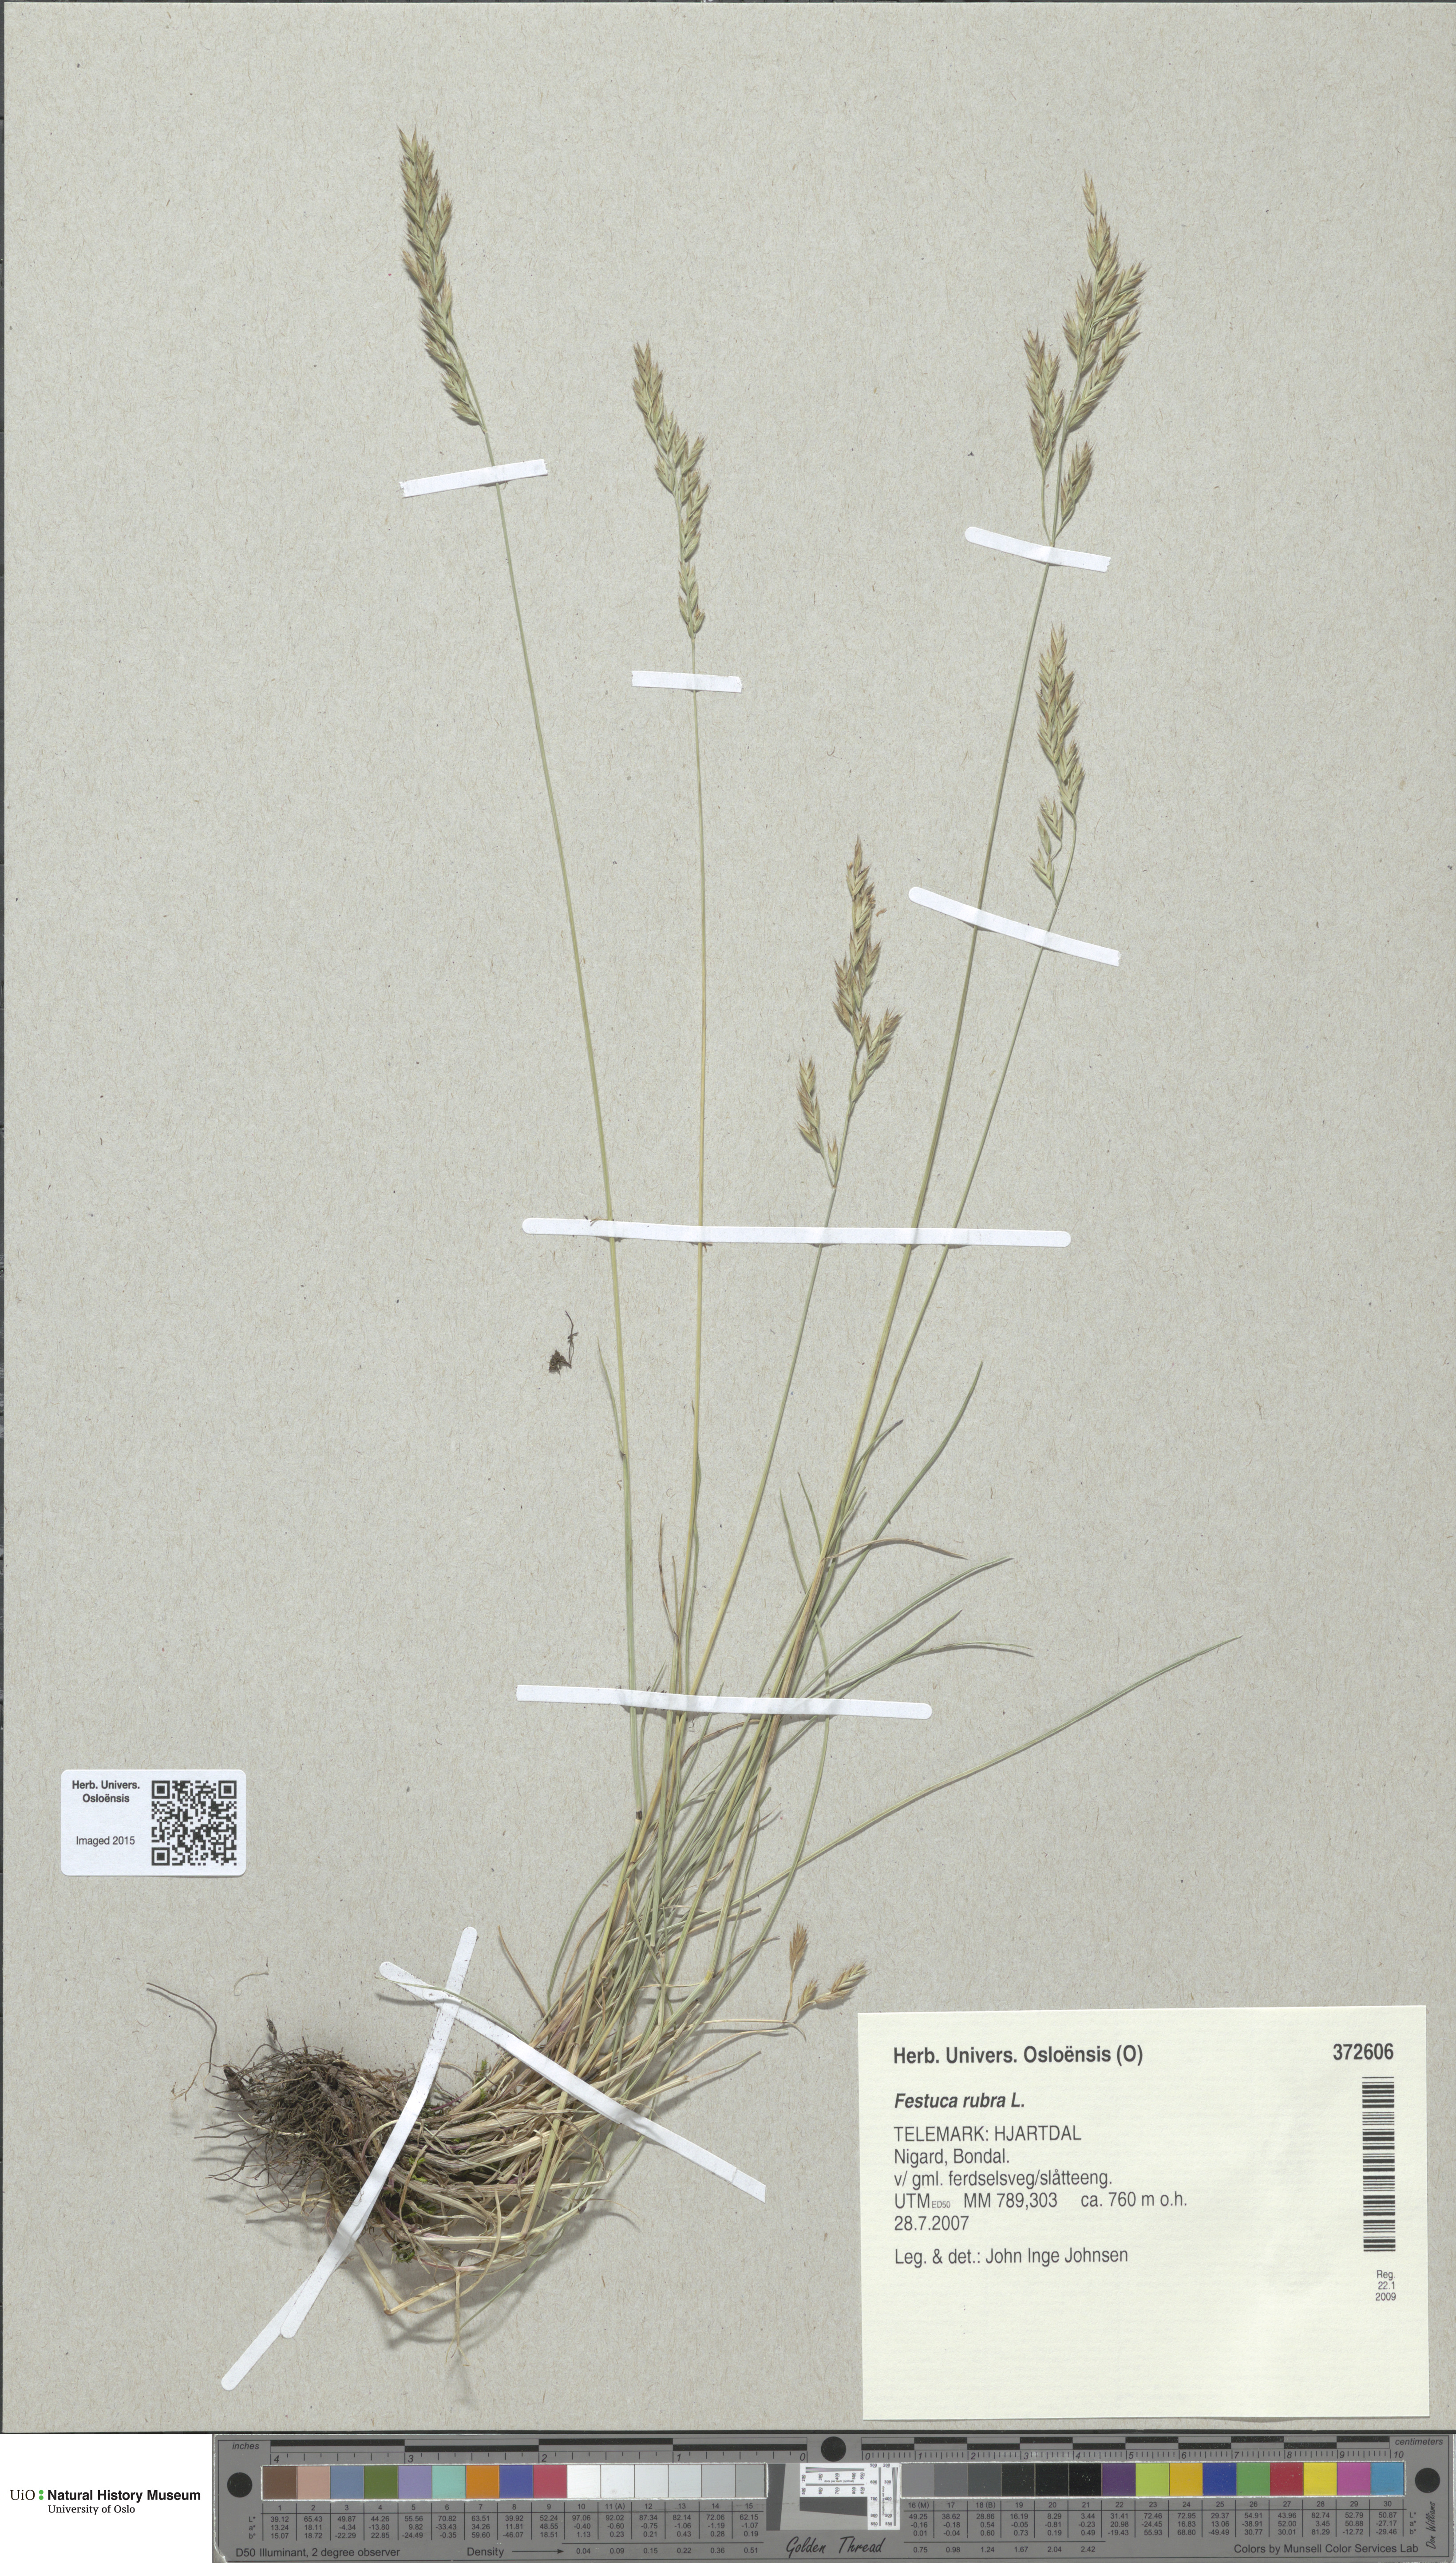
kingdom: Plantae
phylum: Tracheophyta
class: Liliopsida
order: Poales
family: Poaceae
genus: Festuca
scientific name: Festuca rubra
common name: Red fescue
